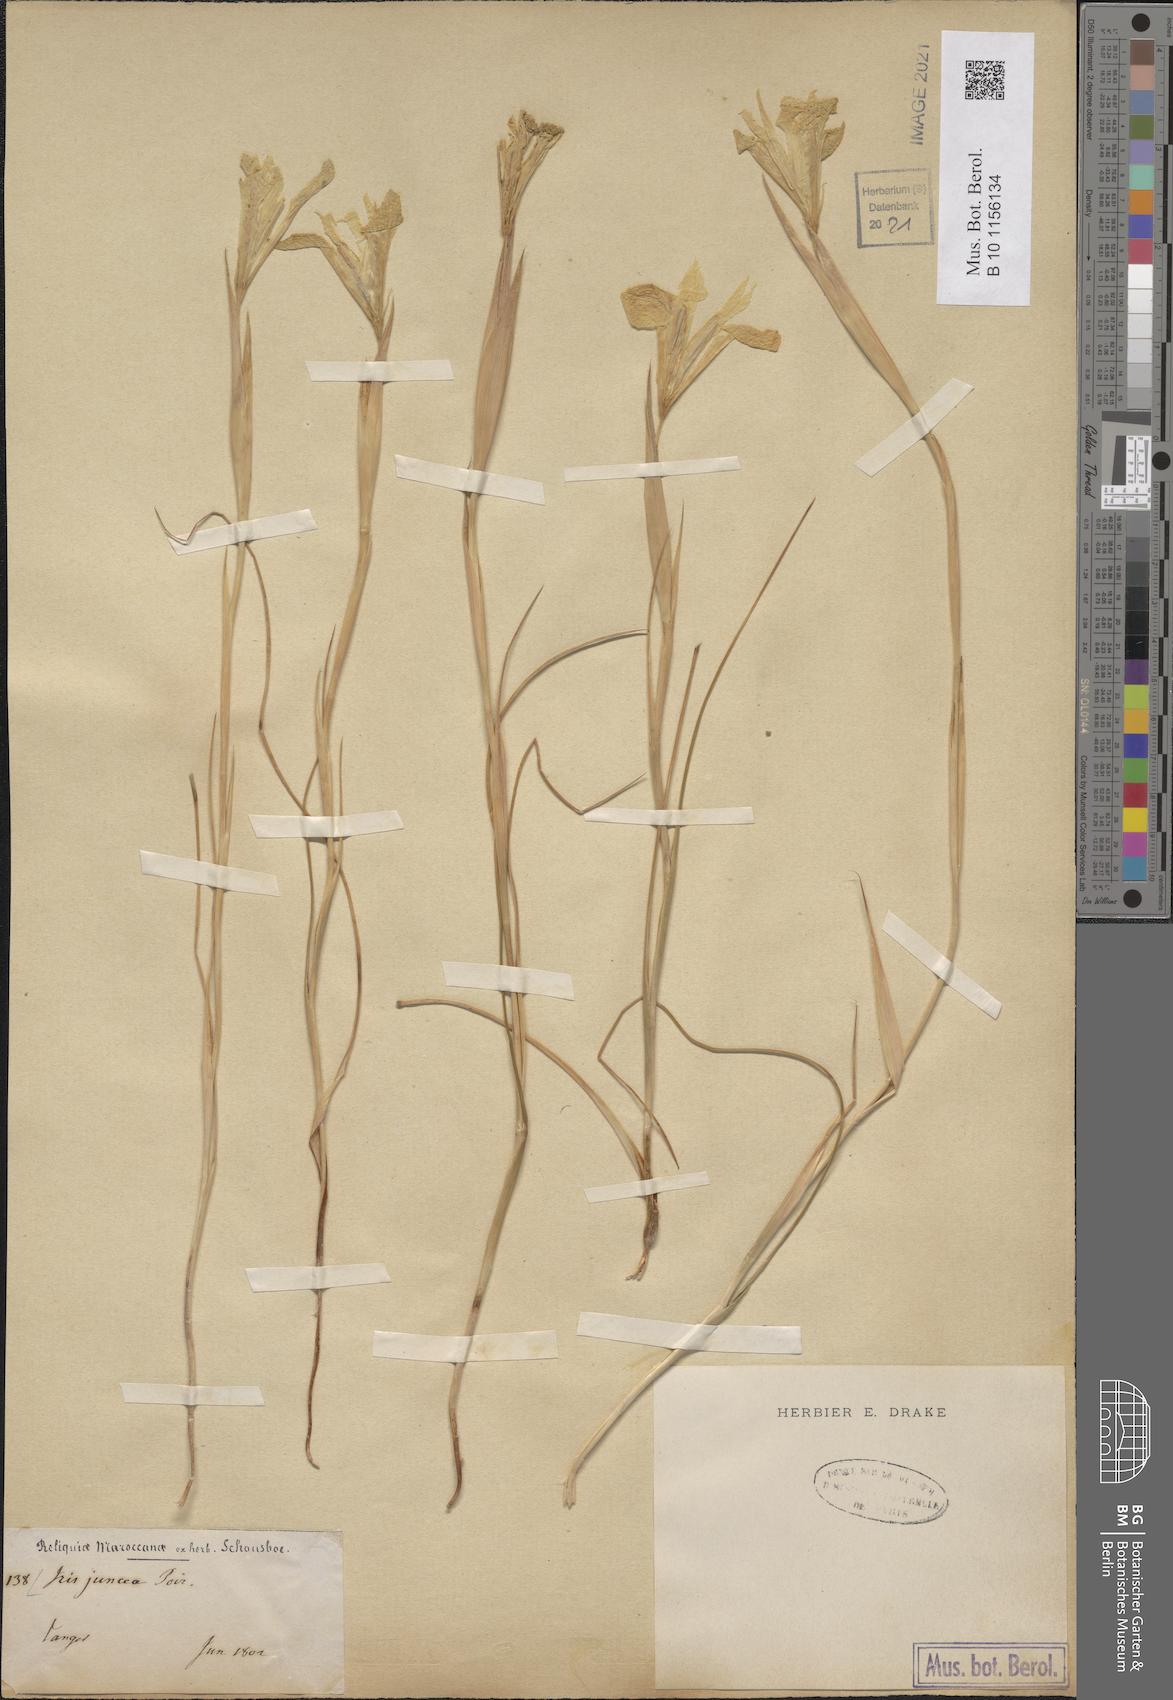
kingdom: Plantae
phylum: Tracheophyta
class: Liliopsida
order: Asparagales
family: Iridaceae
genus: Iris
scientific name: Iris juncea
